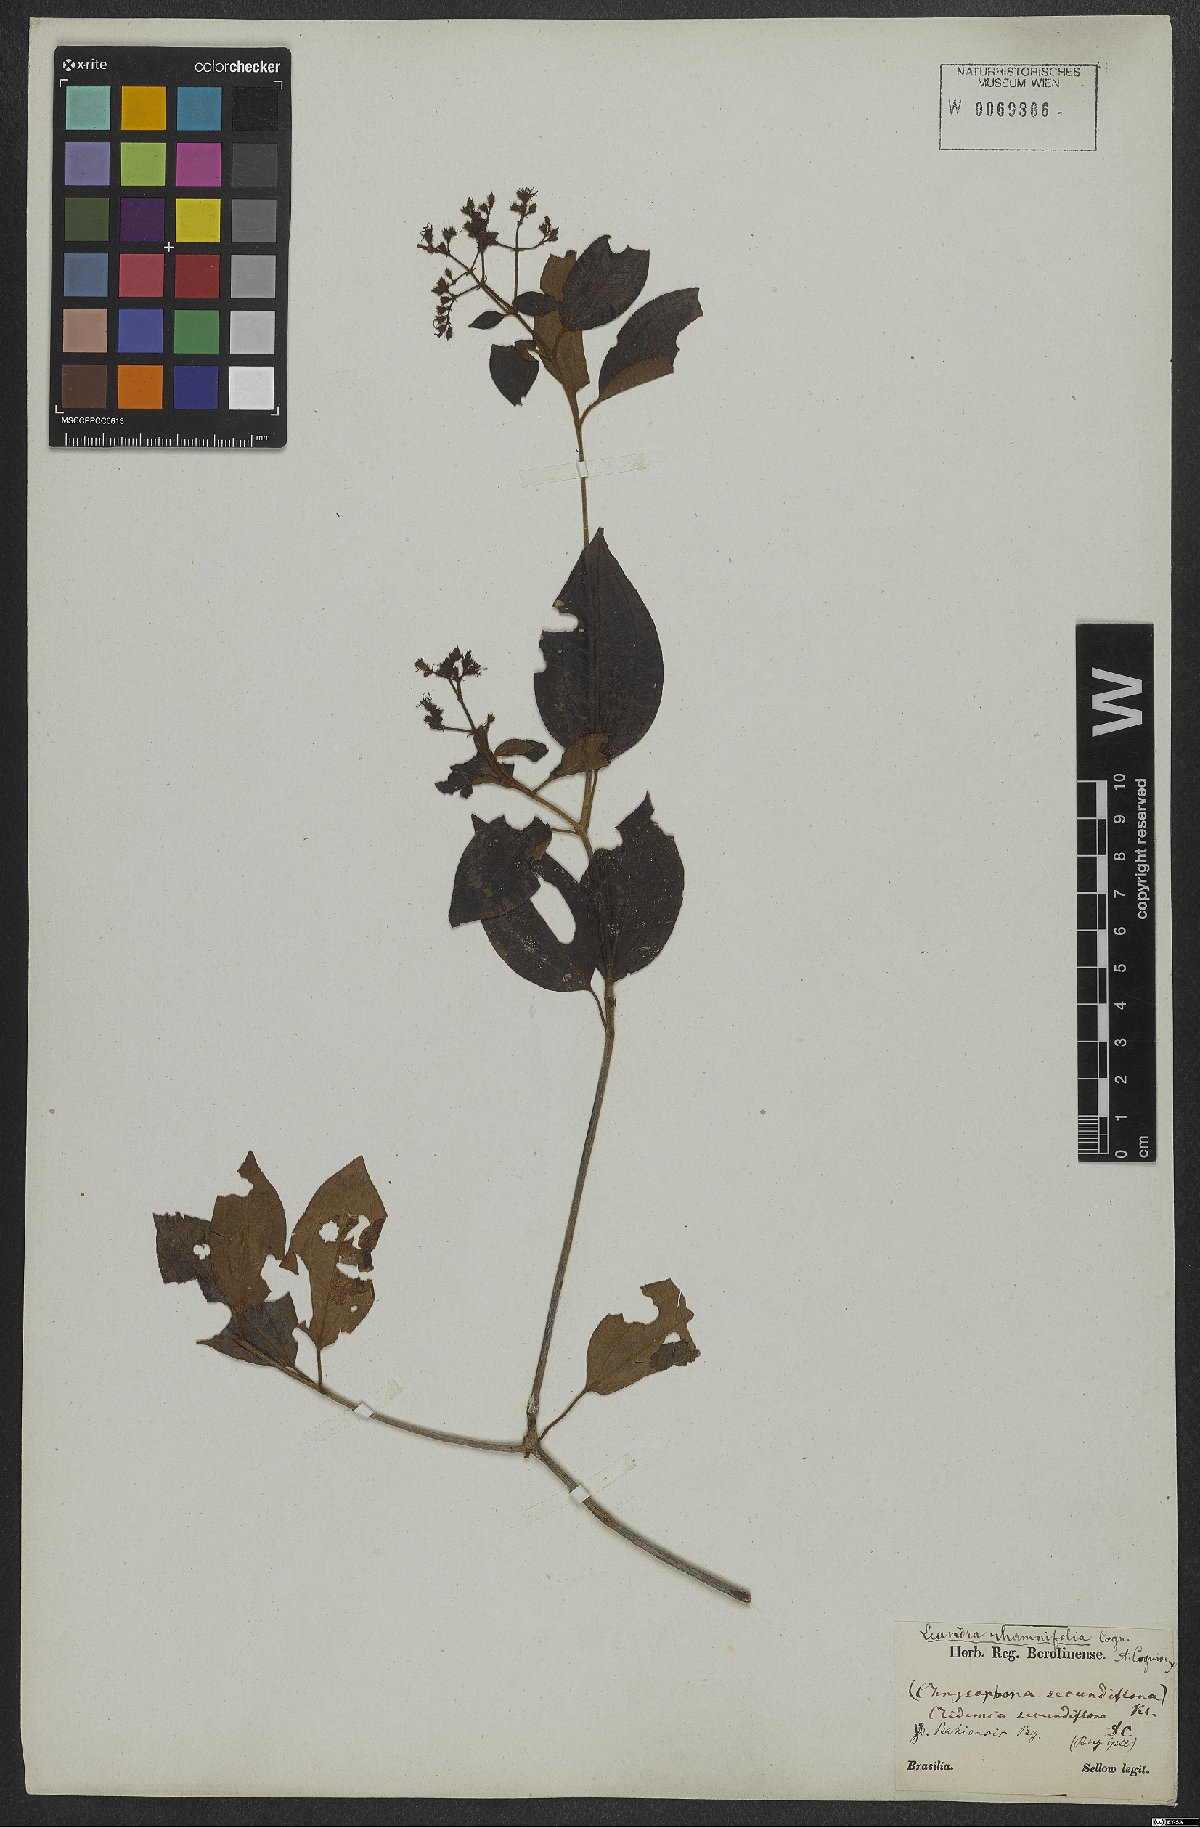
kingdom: Plantae
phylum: Tracheophyta
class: Magnoliopsida
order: Myrtales
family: Melastomataceae
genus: Miconia
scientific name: Miconia rhamnifolia
